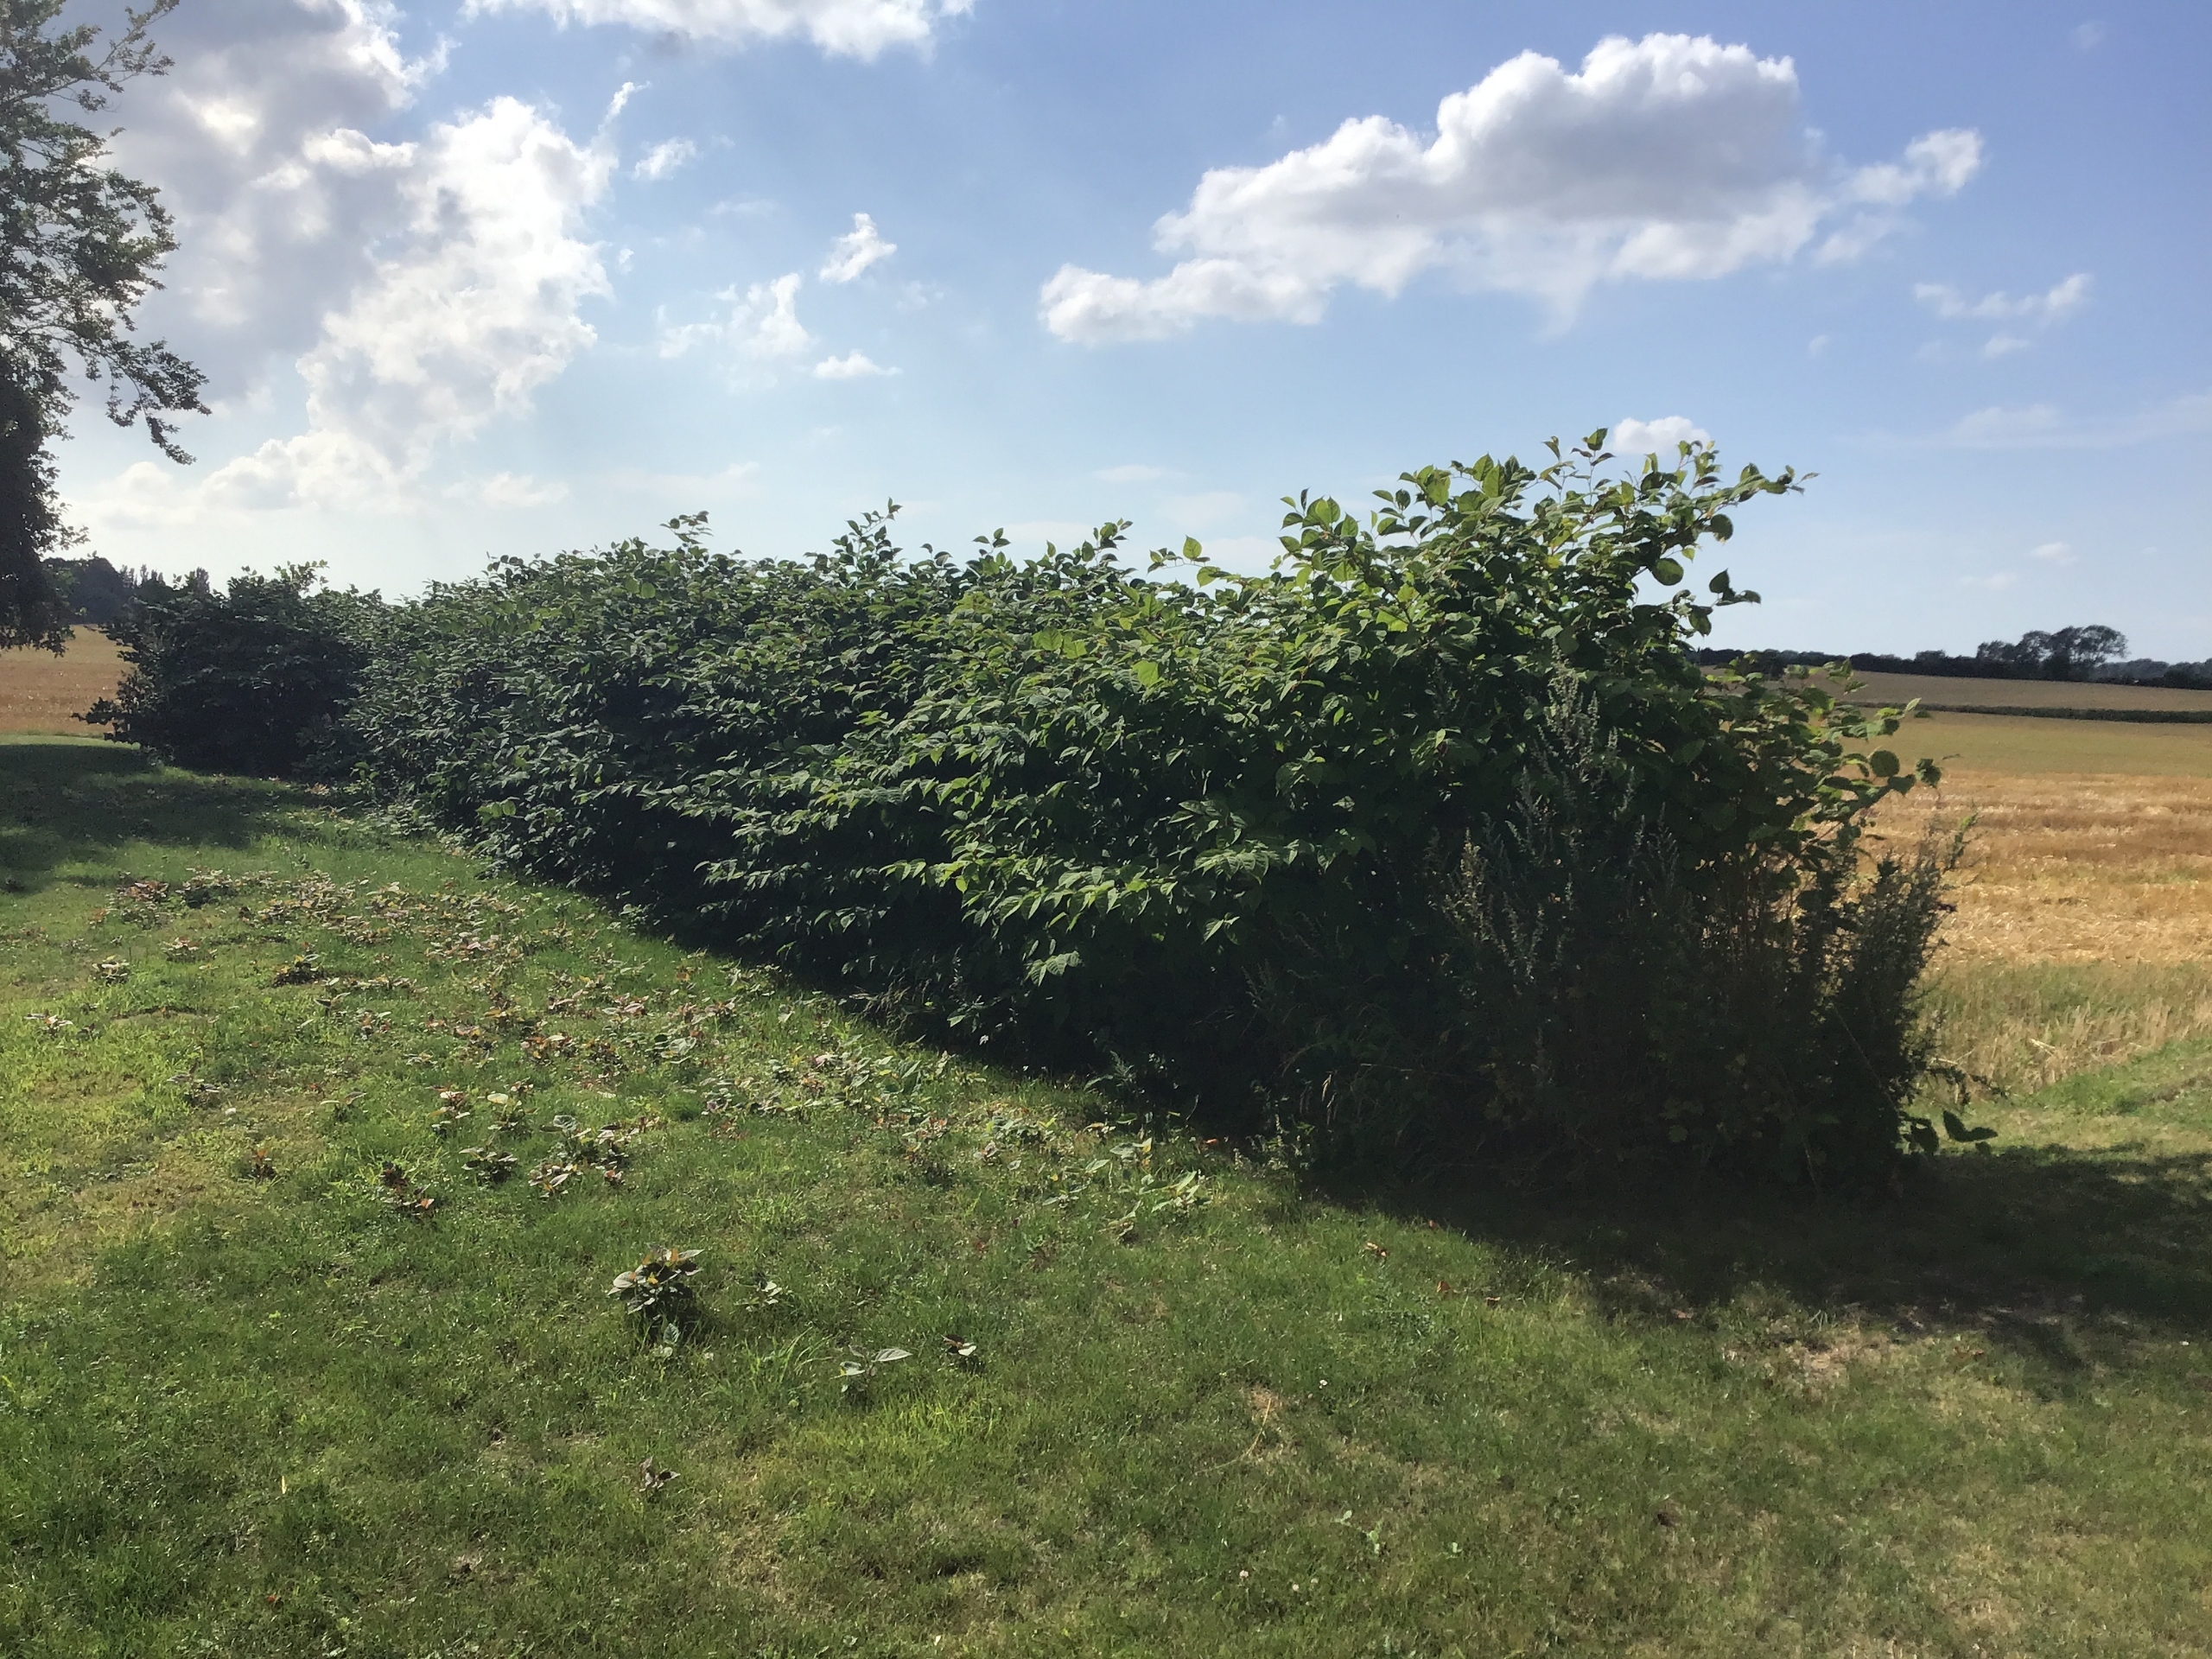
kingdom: Plantae
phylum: Tracheophyta
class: Magnoliopsida
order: Caryophyllales
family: Polygonaceae
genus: Reynoutria
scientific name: Reynoutria japonica
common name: Japan-pileurt
